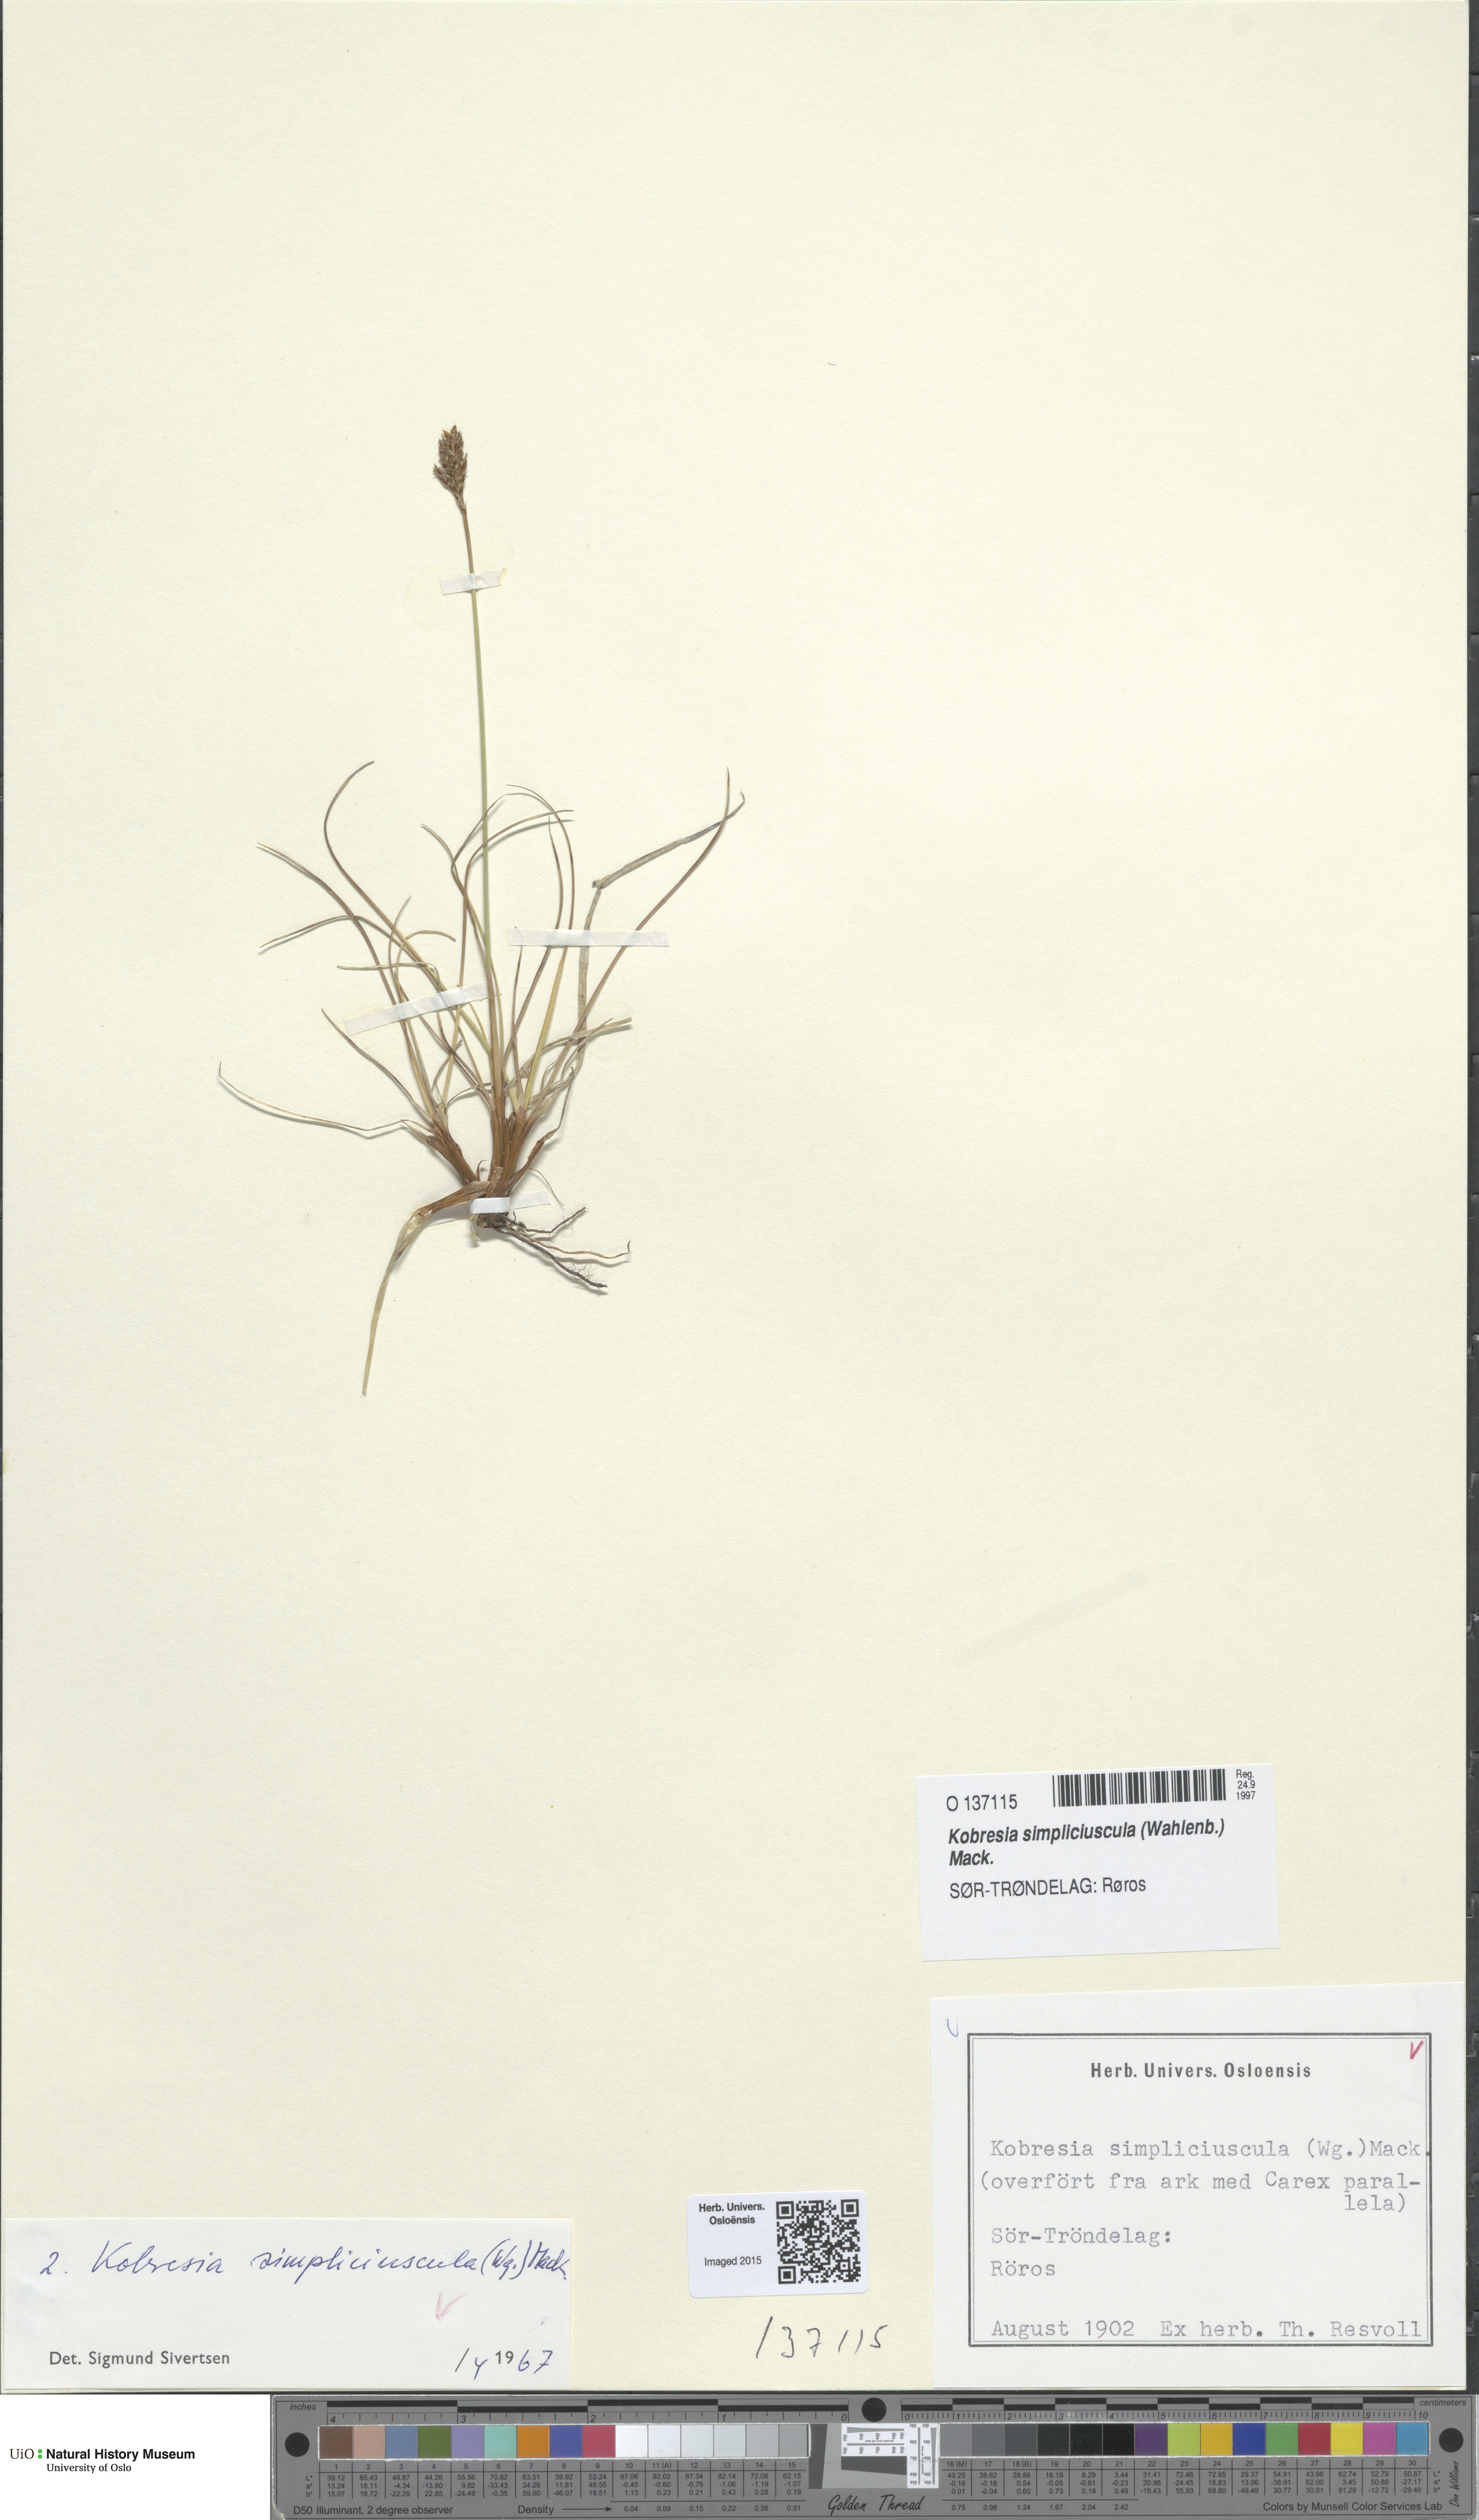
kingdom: Plantae
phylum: Tracheophyta
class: Liliopsida
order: Poales
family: Cyperaceae
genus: Carex
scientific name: Carex simpliciuscula
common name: Simple bog sedge
